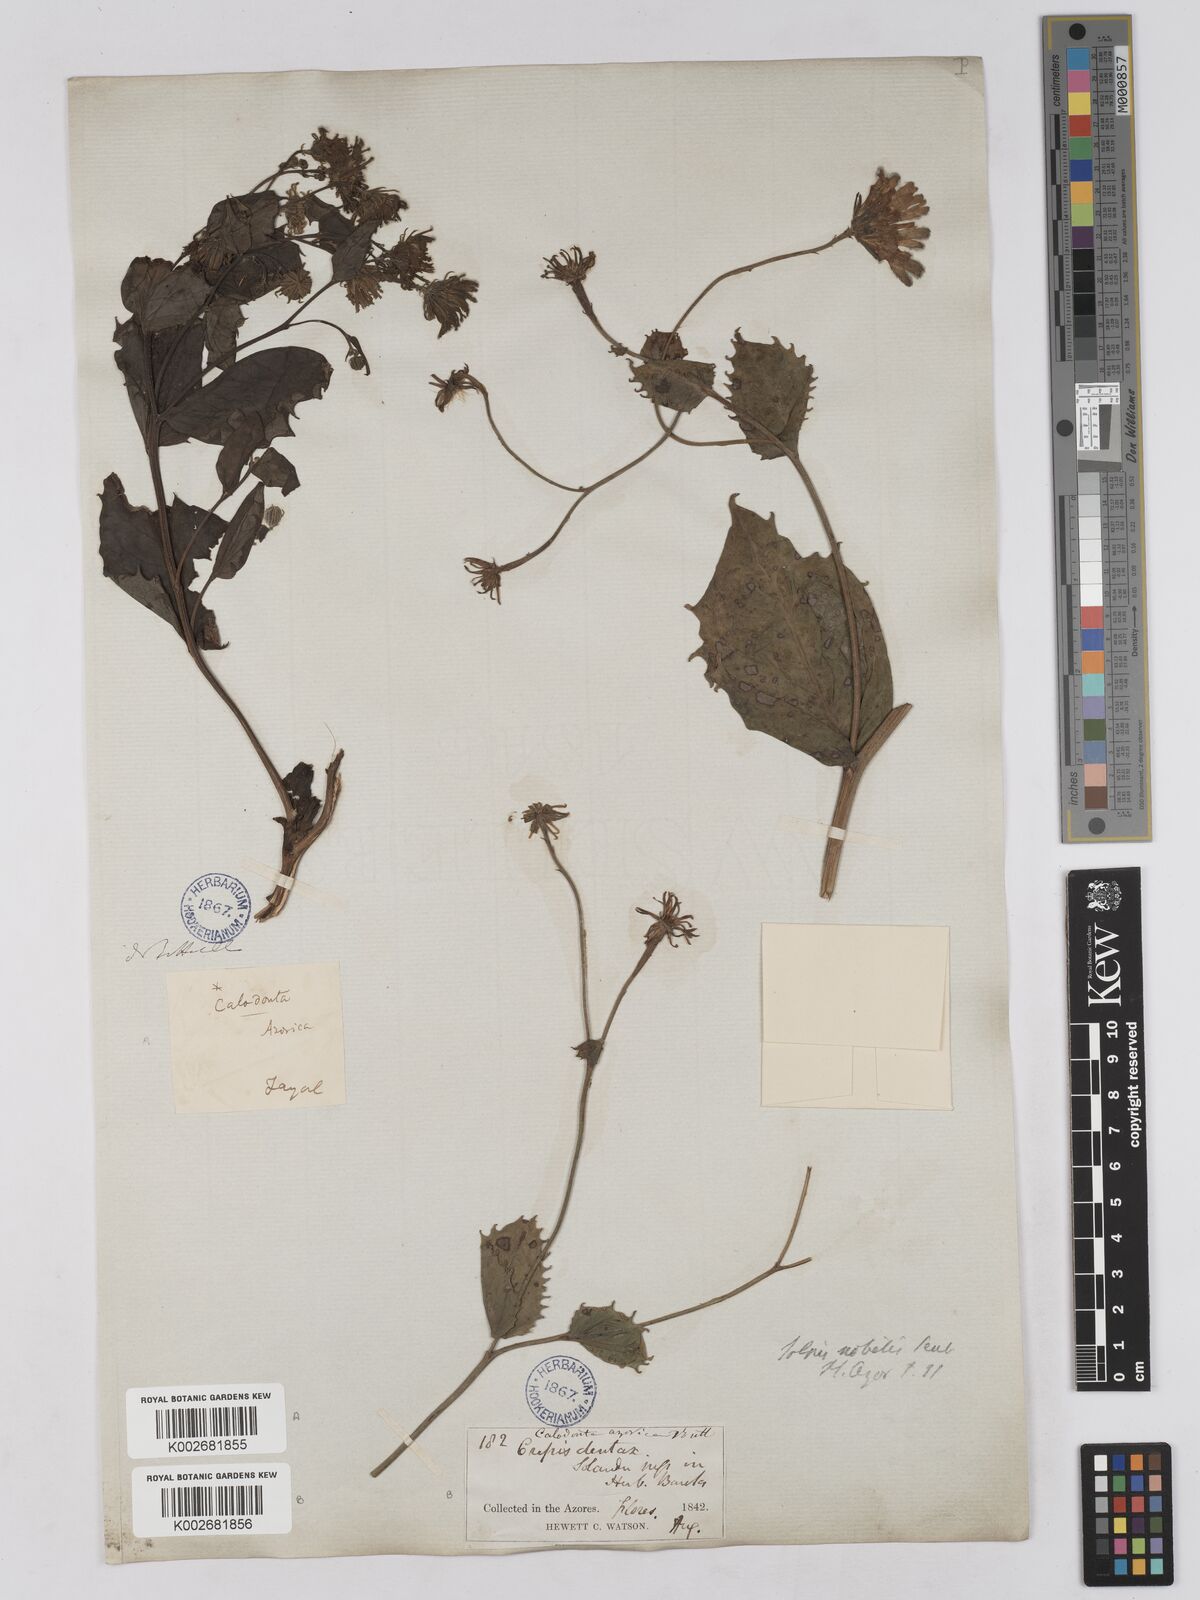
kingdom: Plantae
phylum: Tracheophyta
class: Magnoliopsida
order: Asterales
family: Asteraceae
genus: Tolpis
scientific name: Tolpis nobilis
